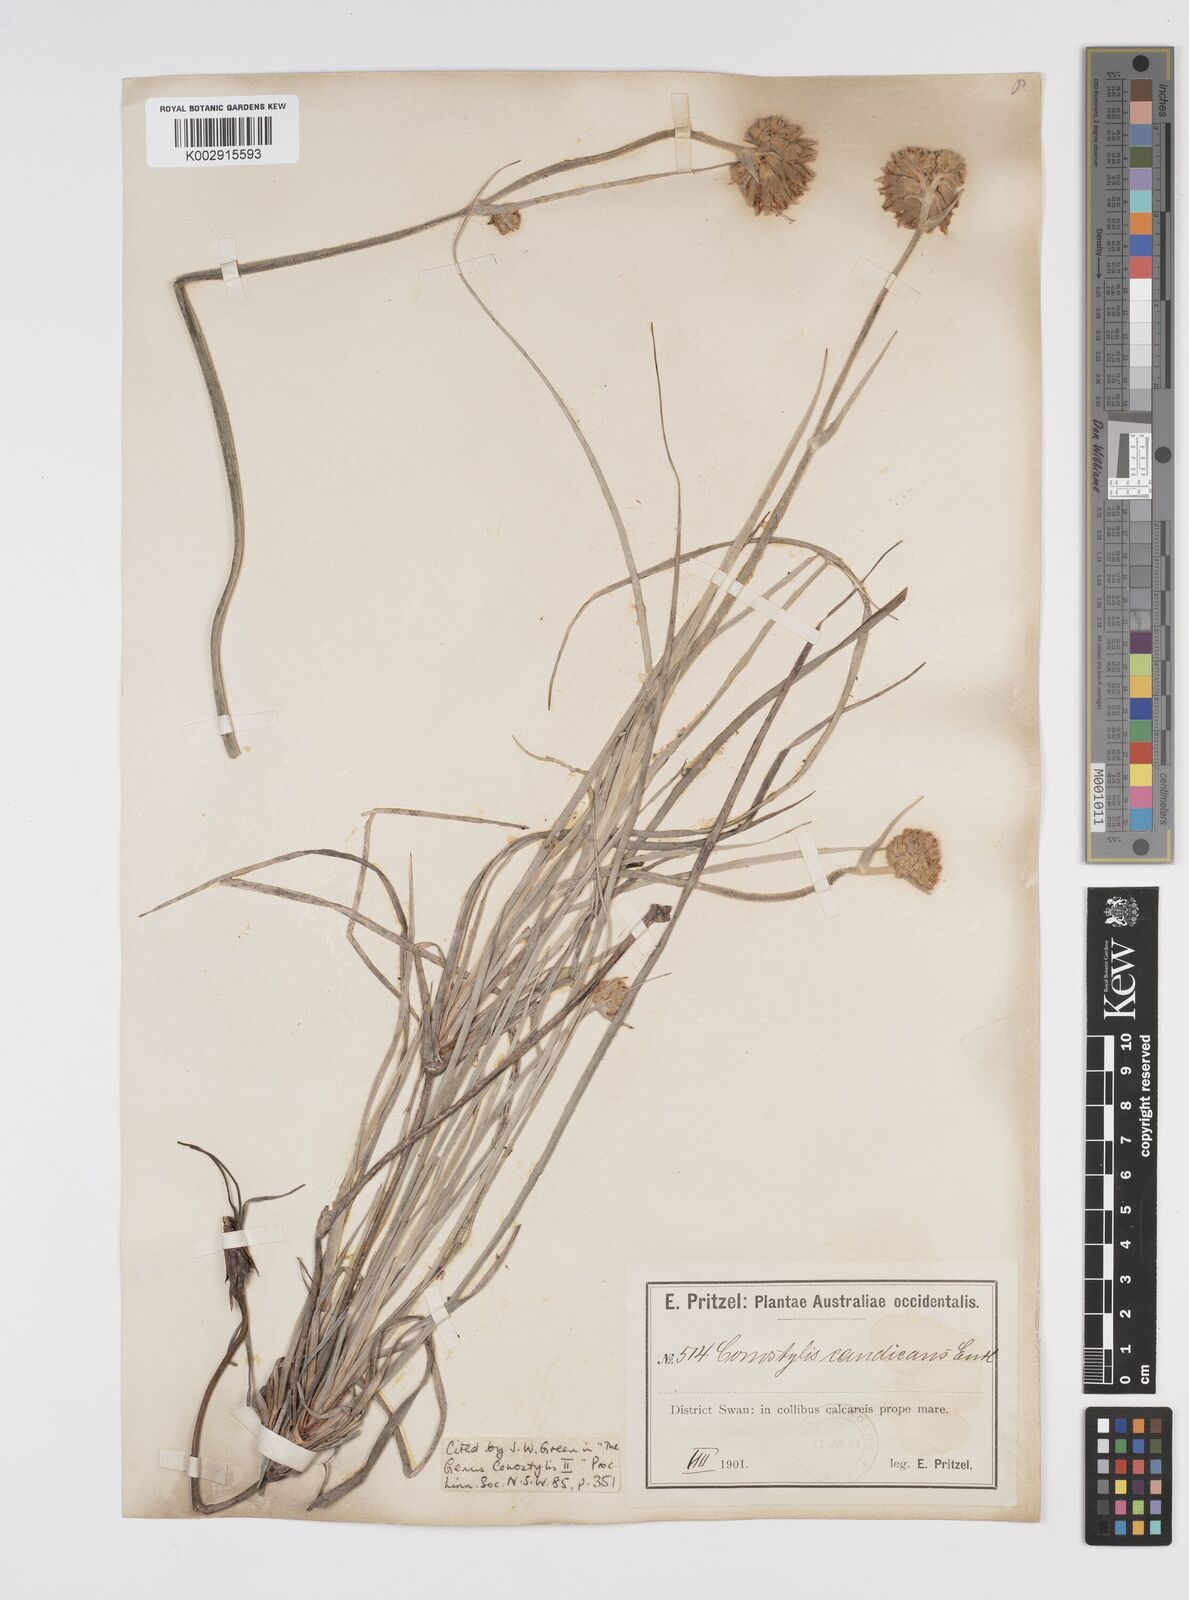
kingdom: Plantae
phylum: Tracheophyta
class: Liliopsida
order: Commelinales
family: Haemodoraceae
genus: Conostylis
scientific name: Conostylis candicans
